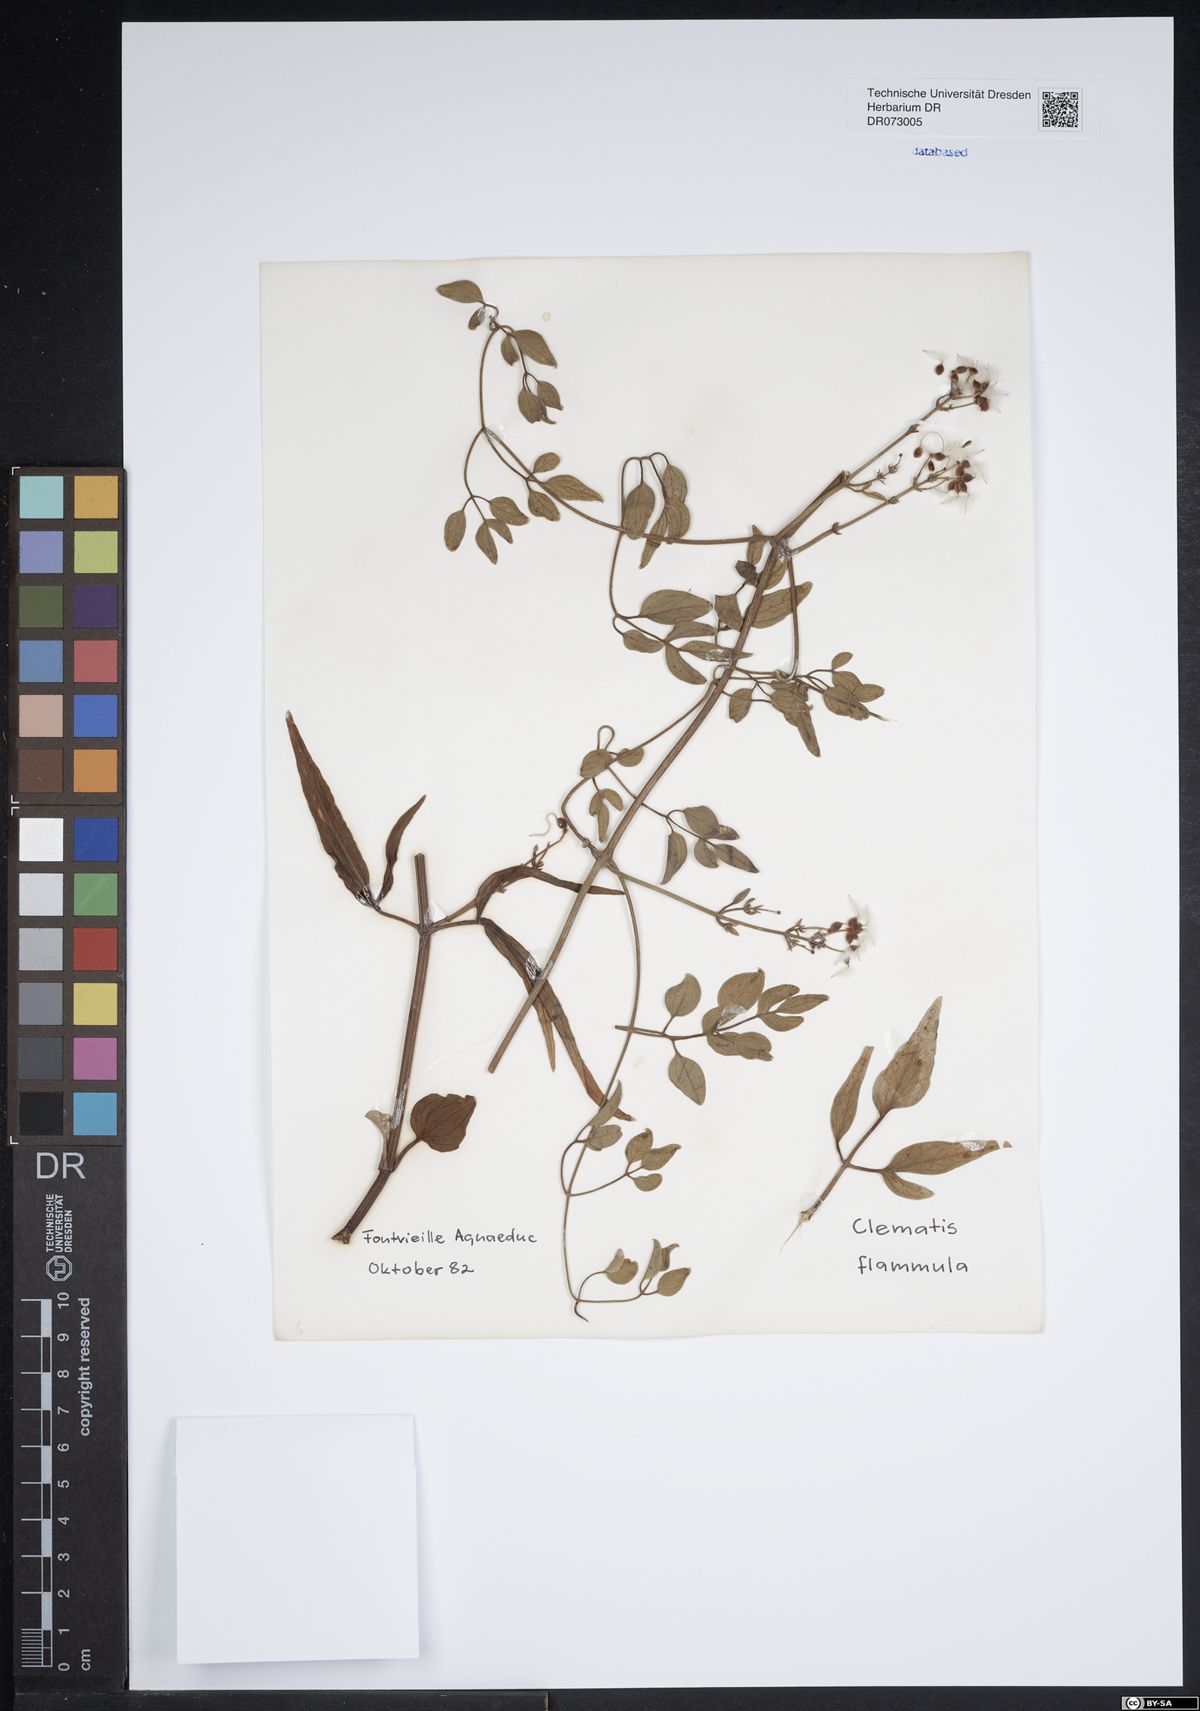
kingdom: Plantae
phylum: Tracheophyta
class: Magnoliopsida
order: Ranunculales
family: Ranunculaceae
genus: Clematis
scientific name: Clematis flammula
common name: Virgin's-bower
